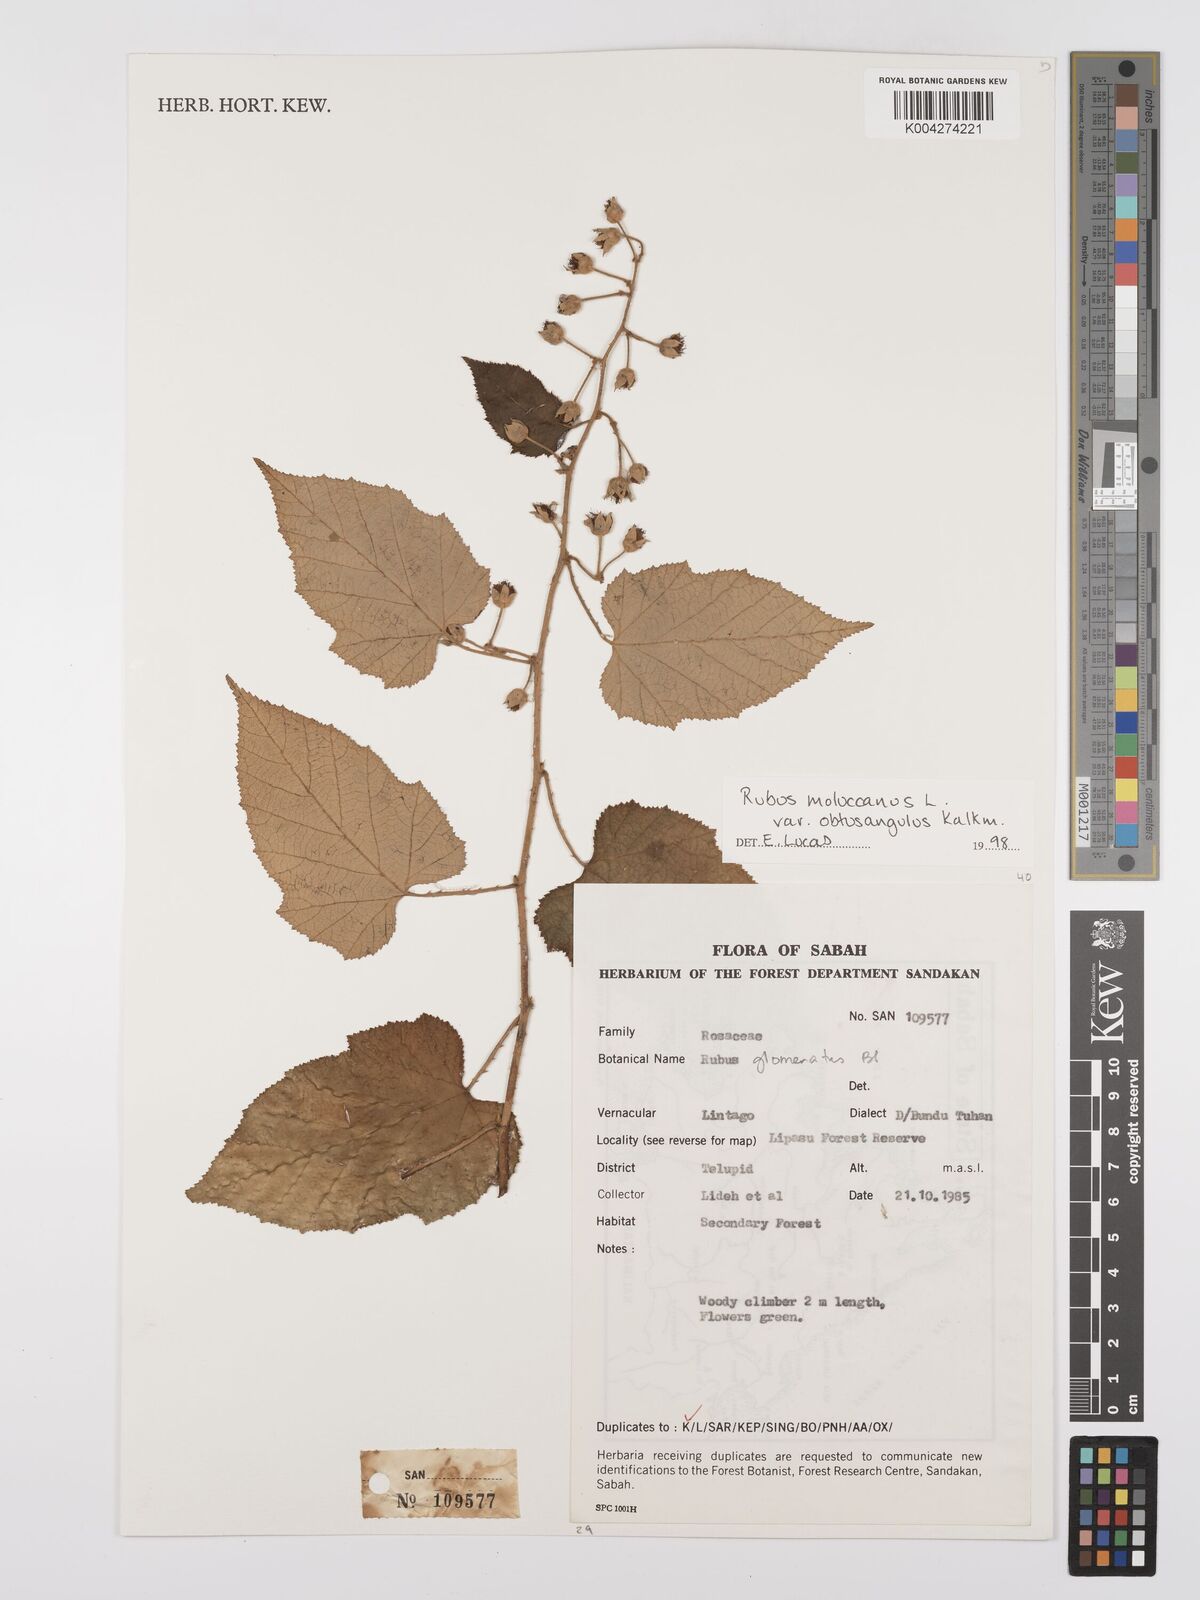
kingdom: Plantae
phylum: Tracheophyta
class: Magnoliopsida
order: Rosales
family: Rosaceae
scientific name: Rosaceae
